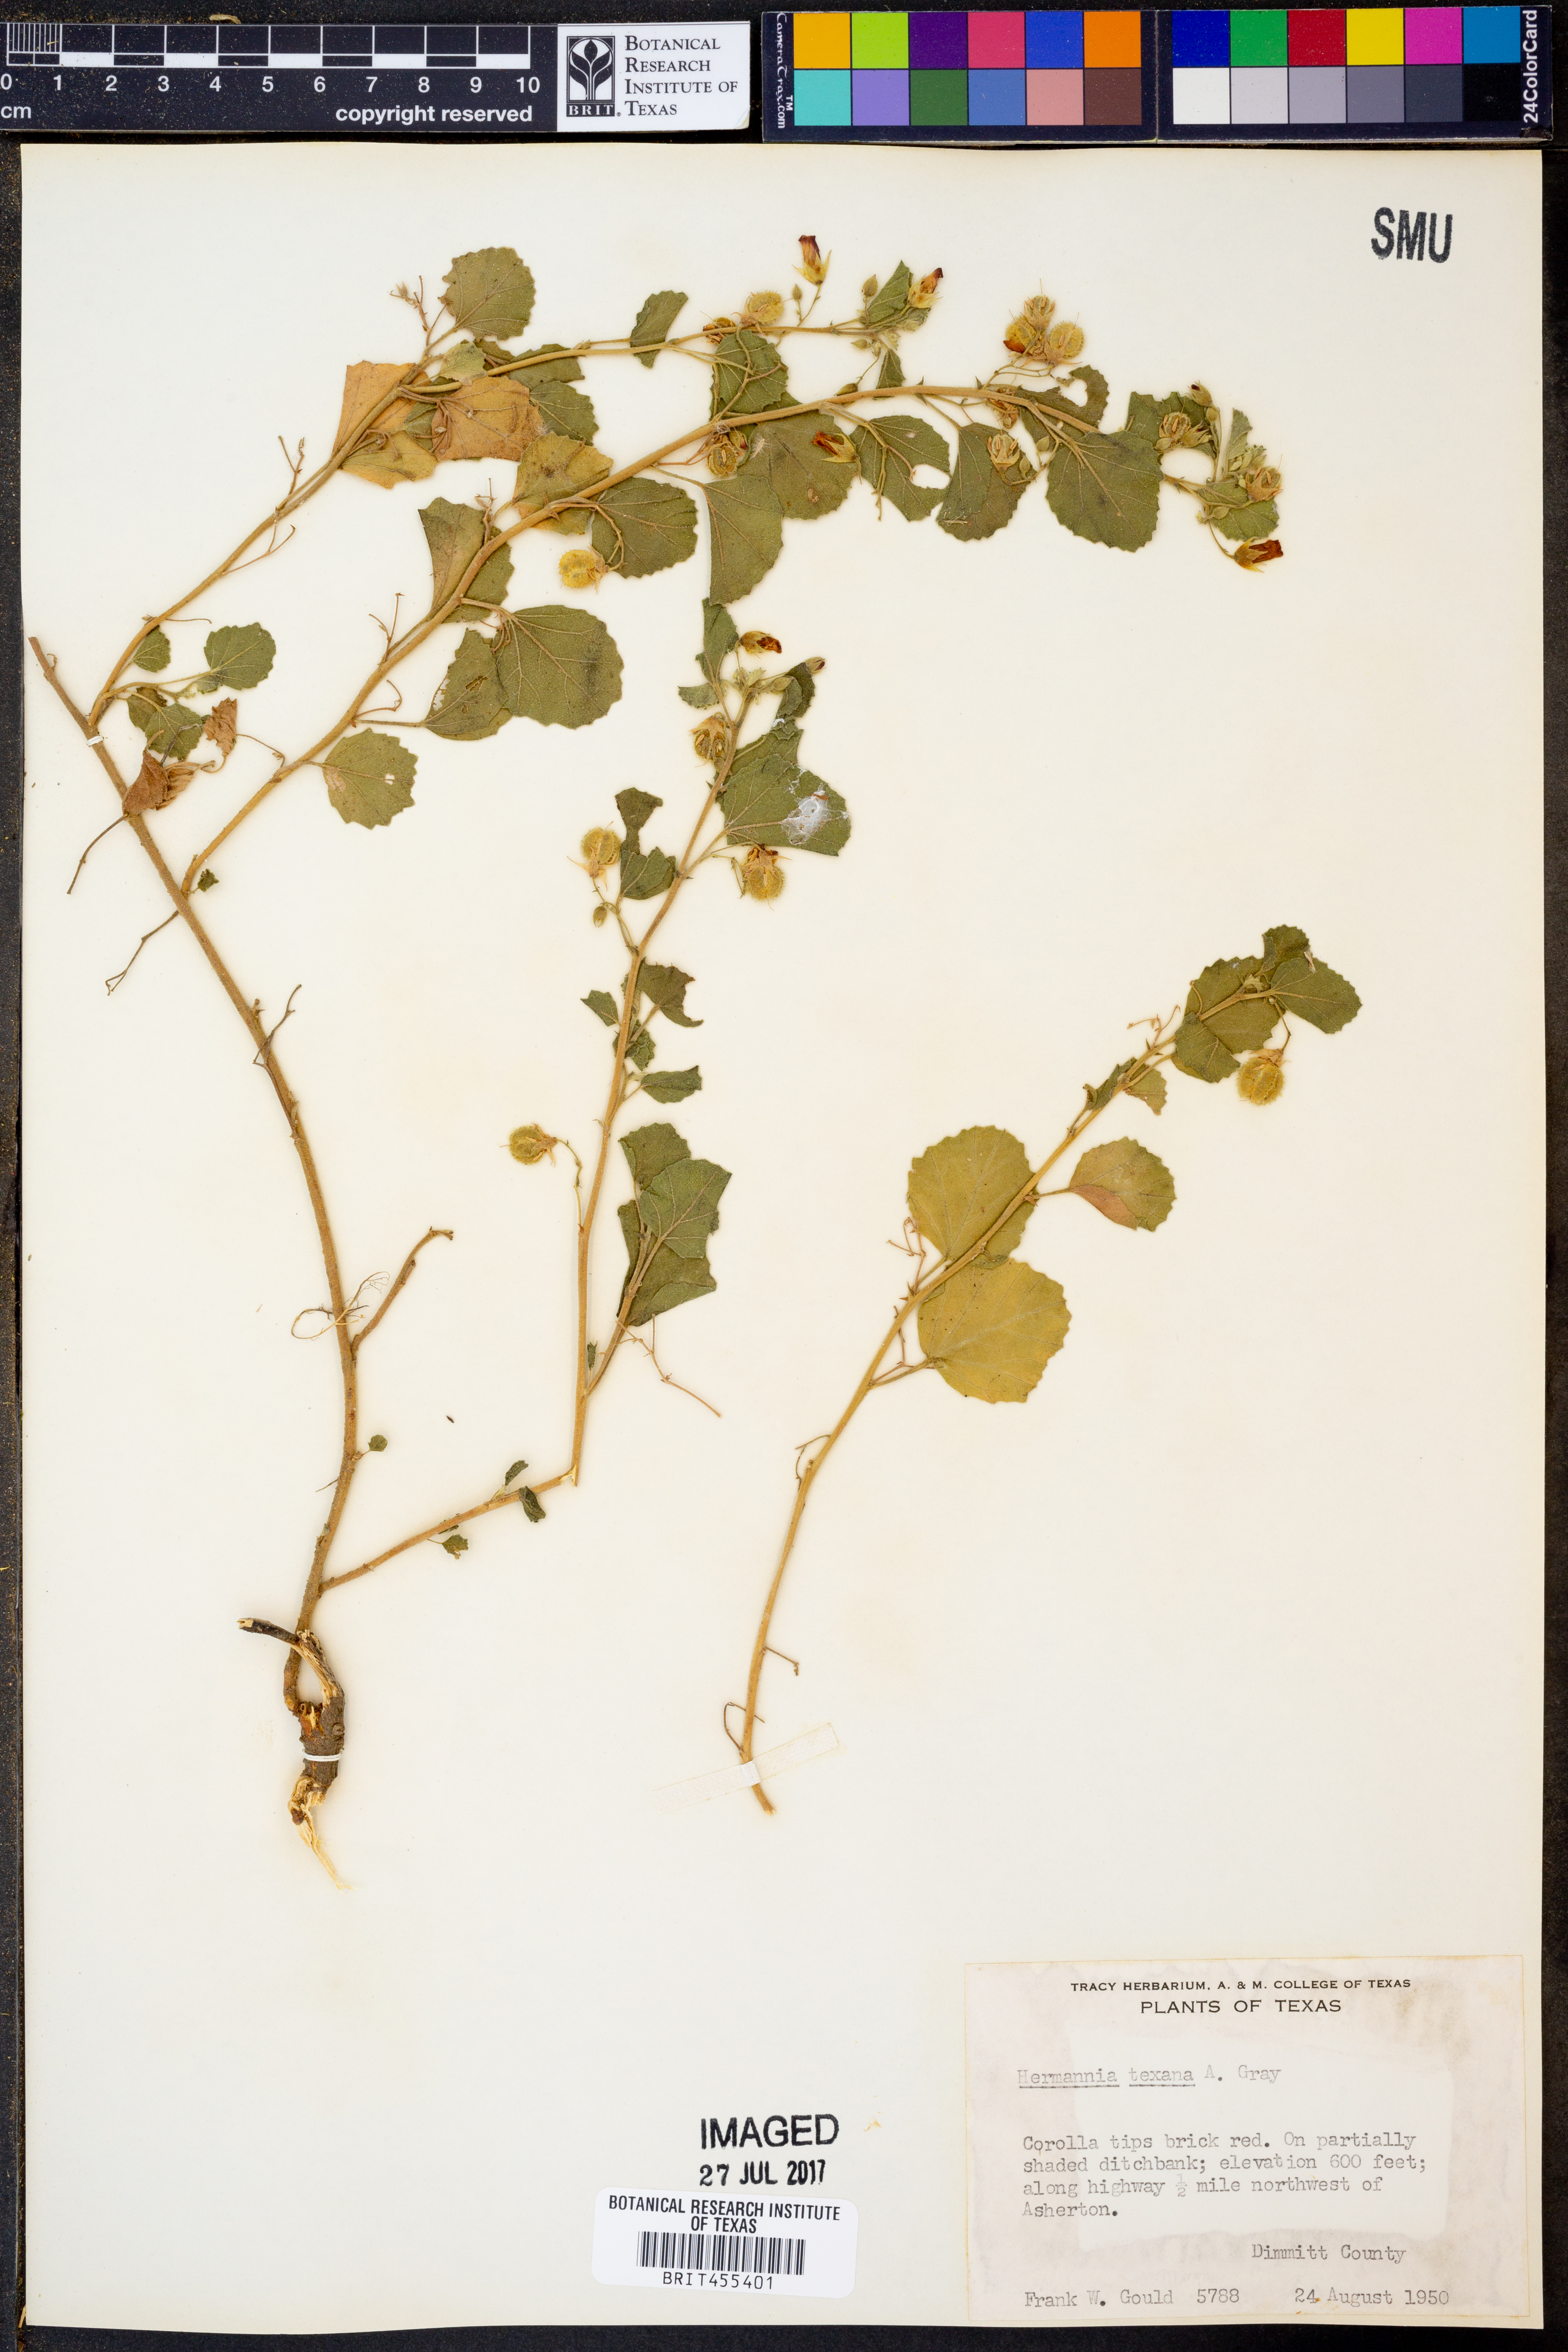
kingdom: Plantae
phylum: Tracheophyta
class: Magnoliopsida
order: Malvales
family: Malvaceae
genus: Hermannia
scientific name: Hermannia texana
